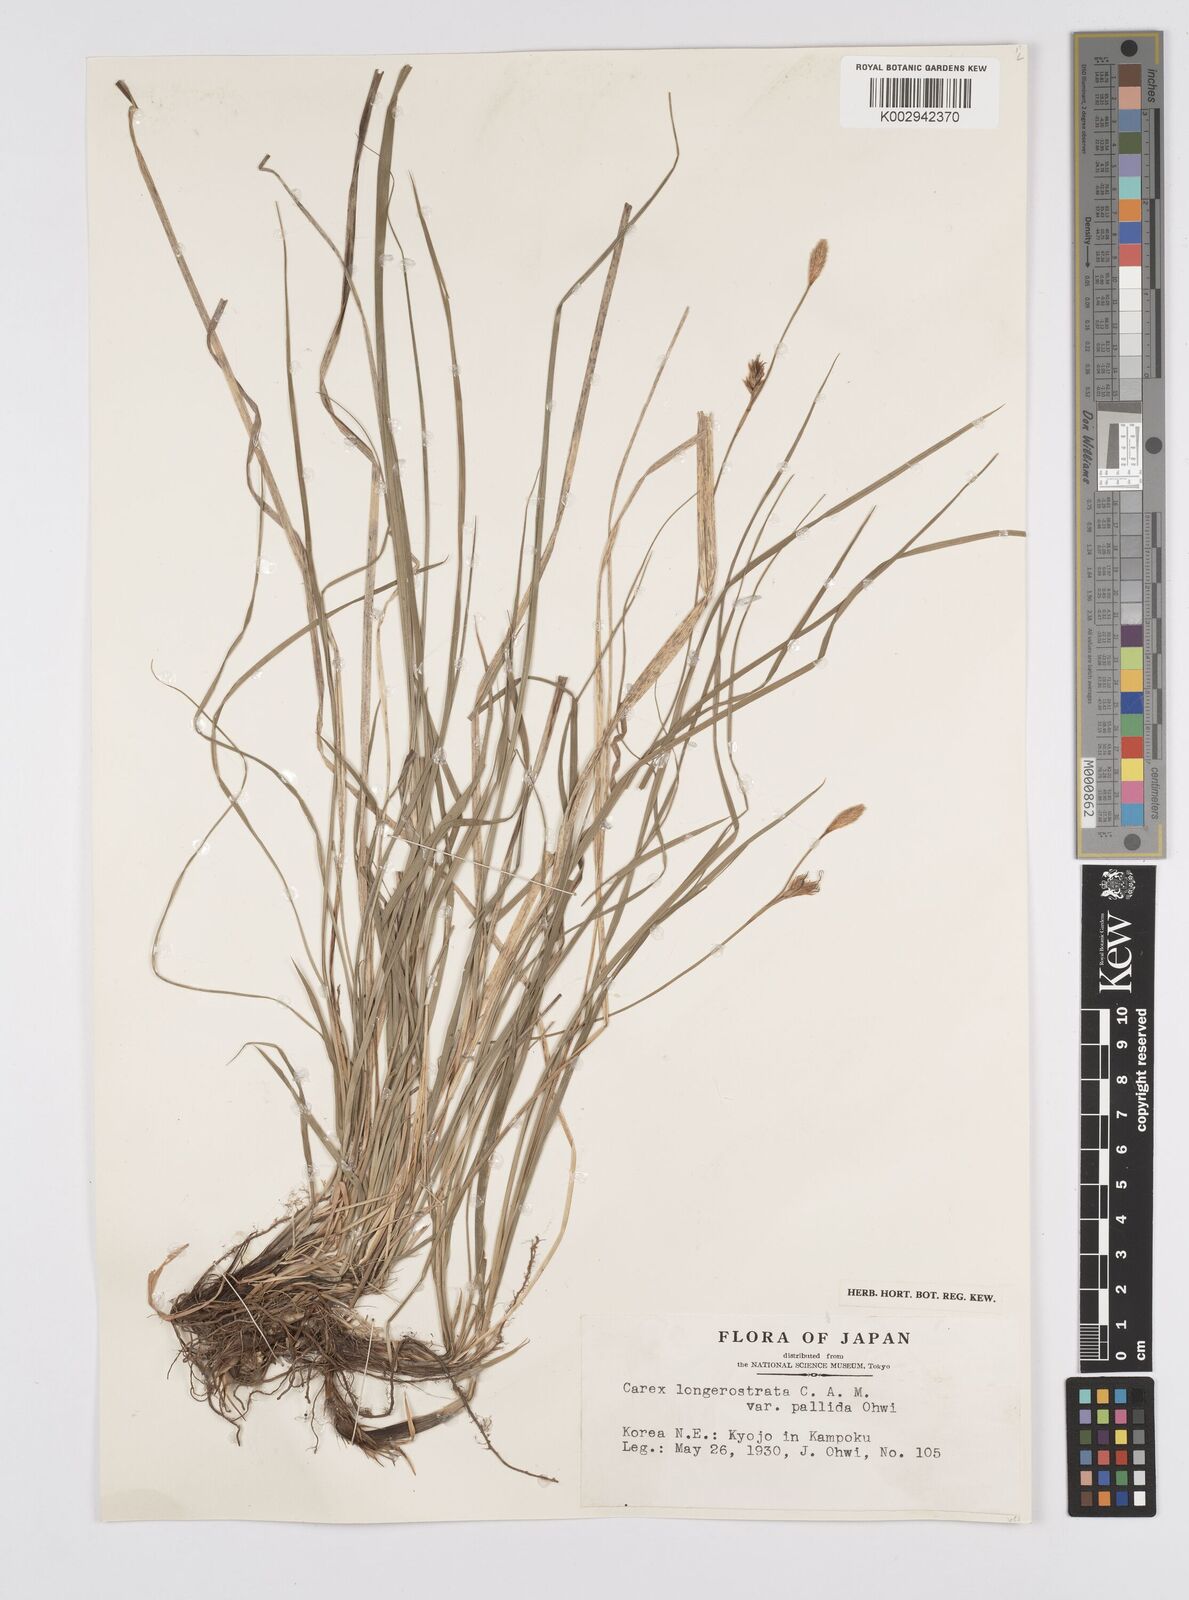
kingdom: Plantae
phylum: Tracheophyta
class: Liliopsida
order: Poales
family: Cyperaceae
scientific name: Cyperaceae
